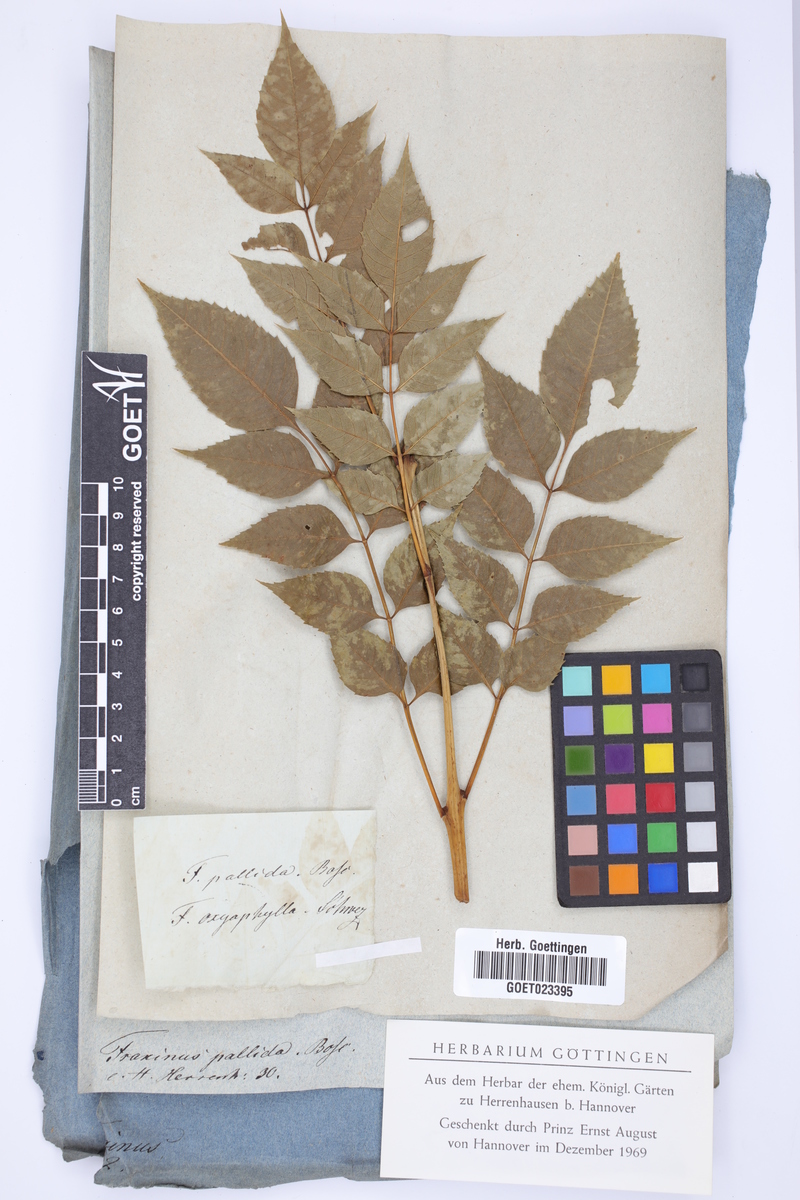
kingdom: Plantae
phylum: Tracheophyta
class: Magnoliopsida
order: Lamiales
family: Oleaceae
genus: Fraxinus
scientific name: Fraxinus caroliniana
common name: Carolina ash
